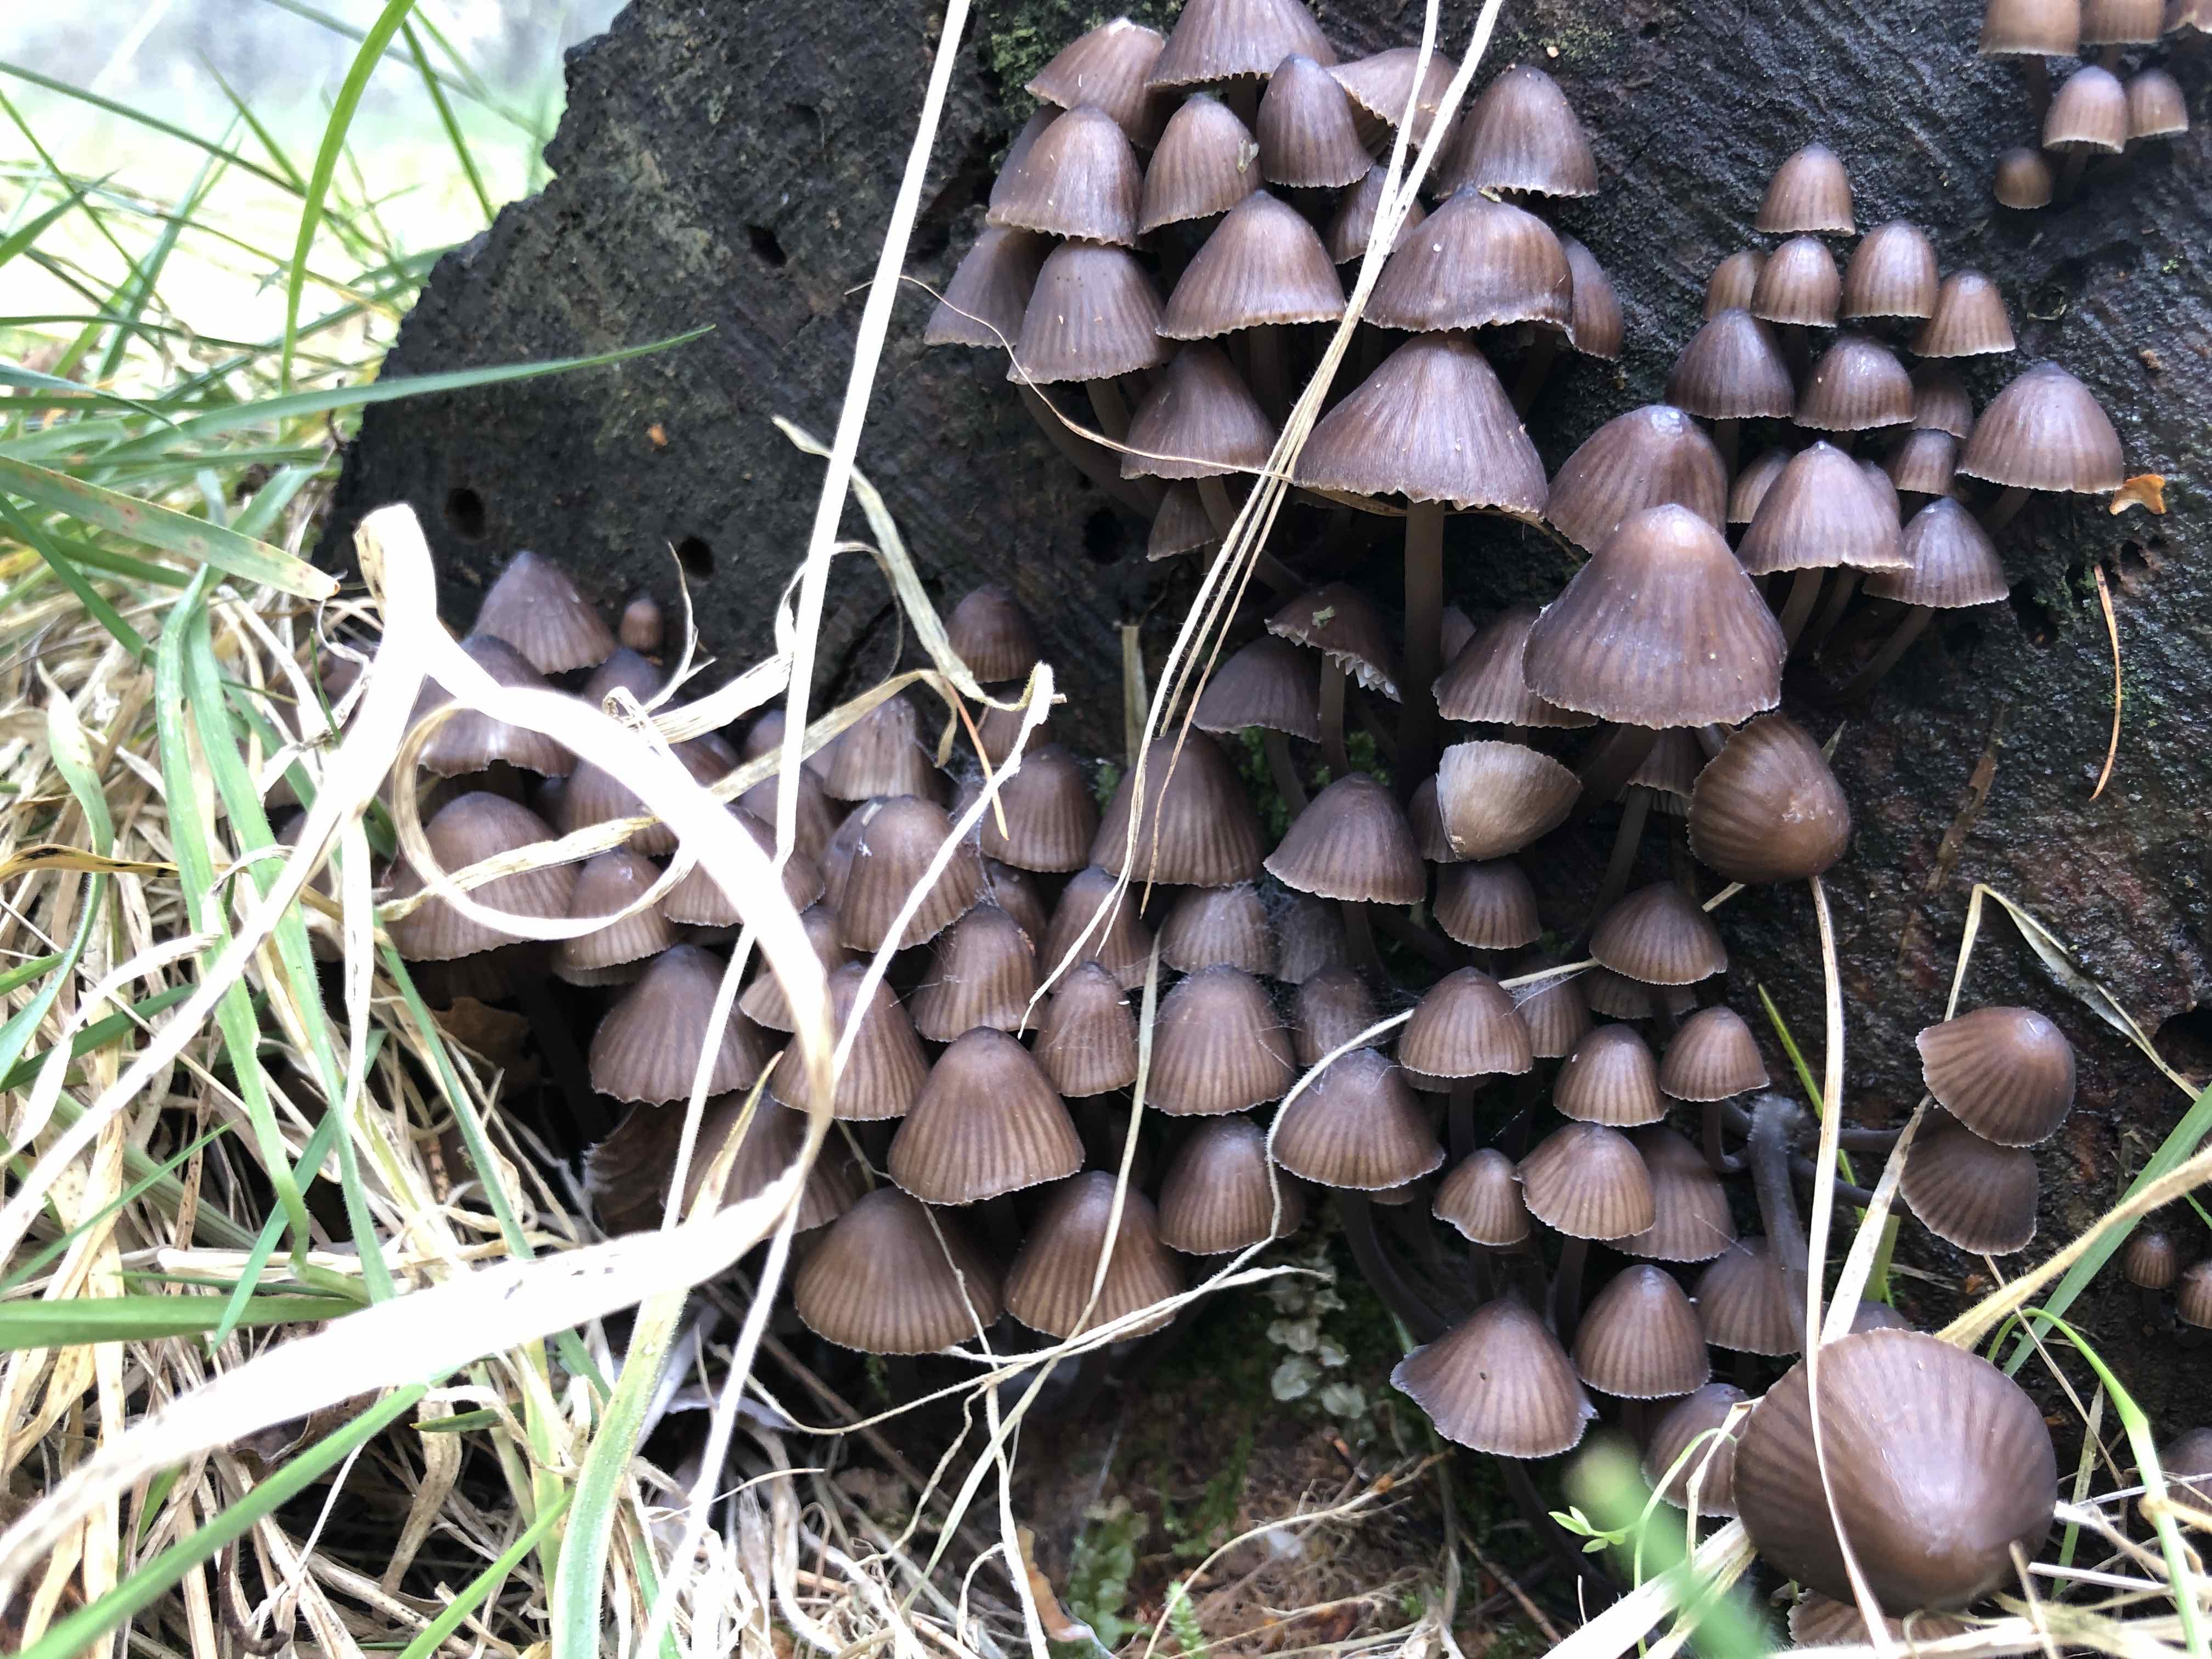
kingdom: Fungi
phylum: Basidiomycota
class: Agaricomycetes
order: Agaricales
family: Mycenaceae
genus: Mycena
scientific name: Mycena stipata
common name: stinkende huesvamp
